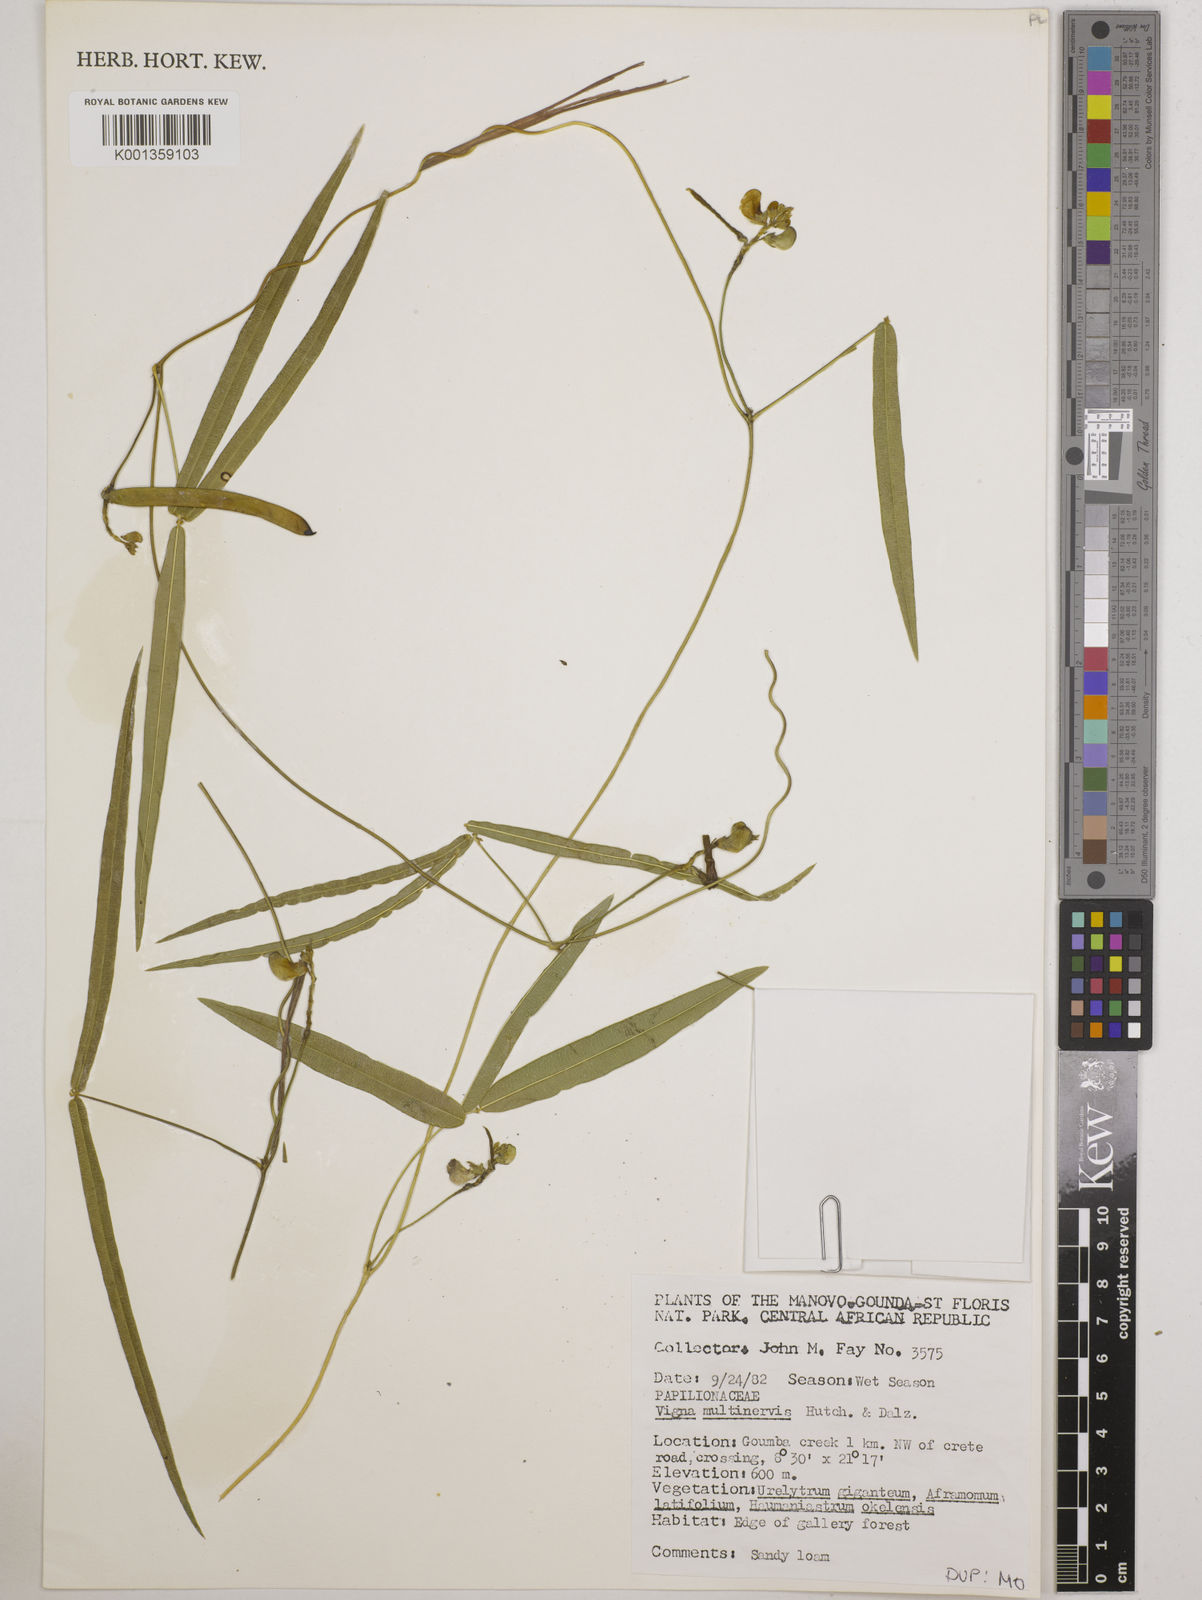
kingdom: Plantae
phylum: Tracheophyta
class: Magnoliopsida
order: Fabales
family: Fabaceae
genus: Vigna
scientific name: Vigna multinervis
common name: Fula-pulaar
